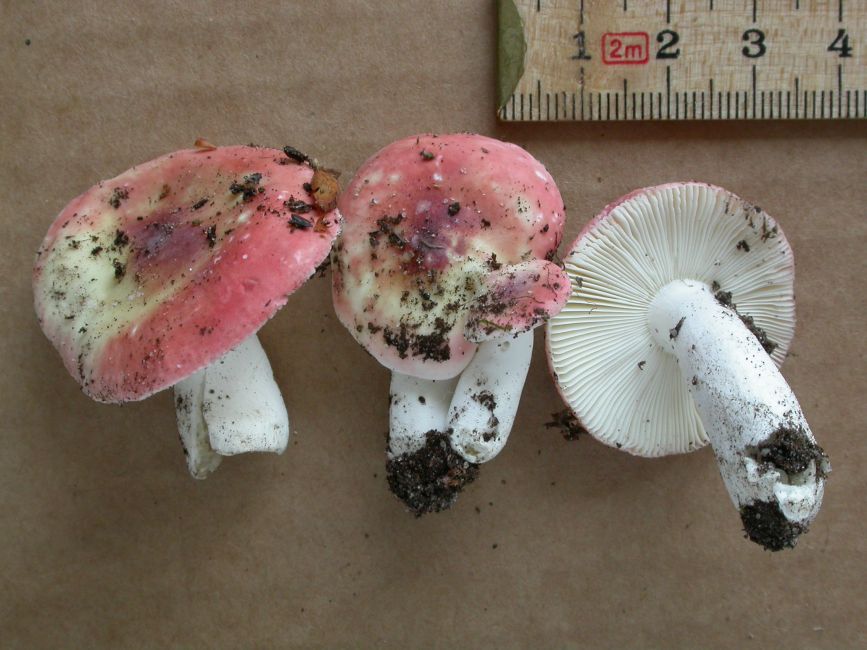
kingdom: Fungi
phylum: Basidiomycota
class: Agaricomycetes
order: Russulales
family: Russulaceae
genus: Russula
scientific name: Russula aurora
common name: rosa skørhat
